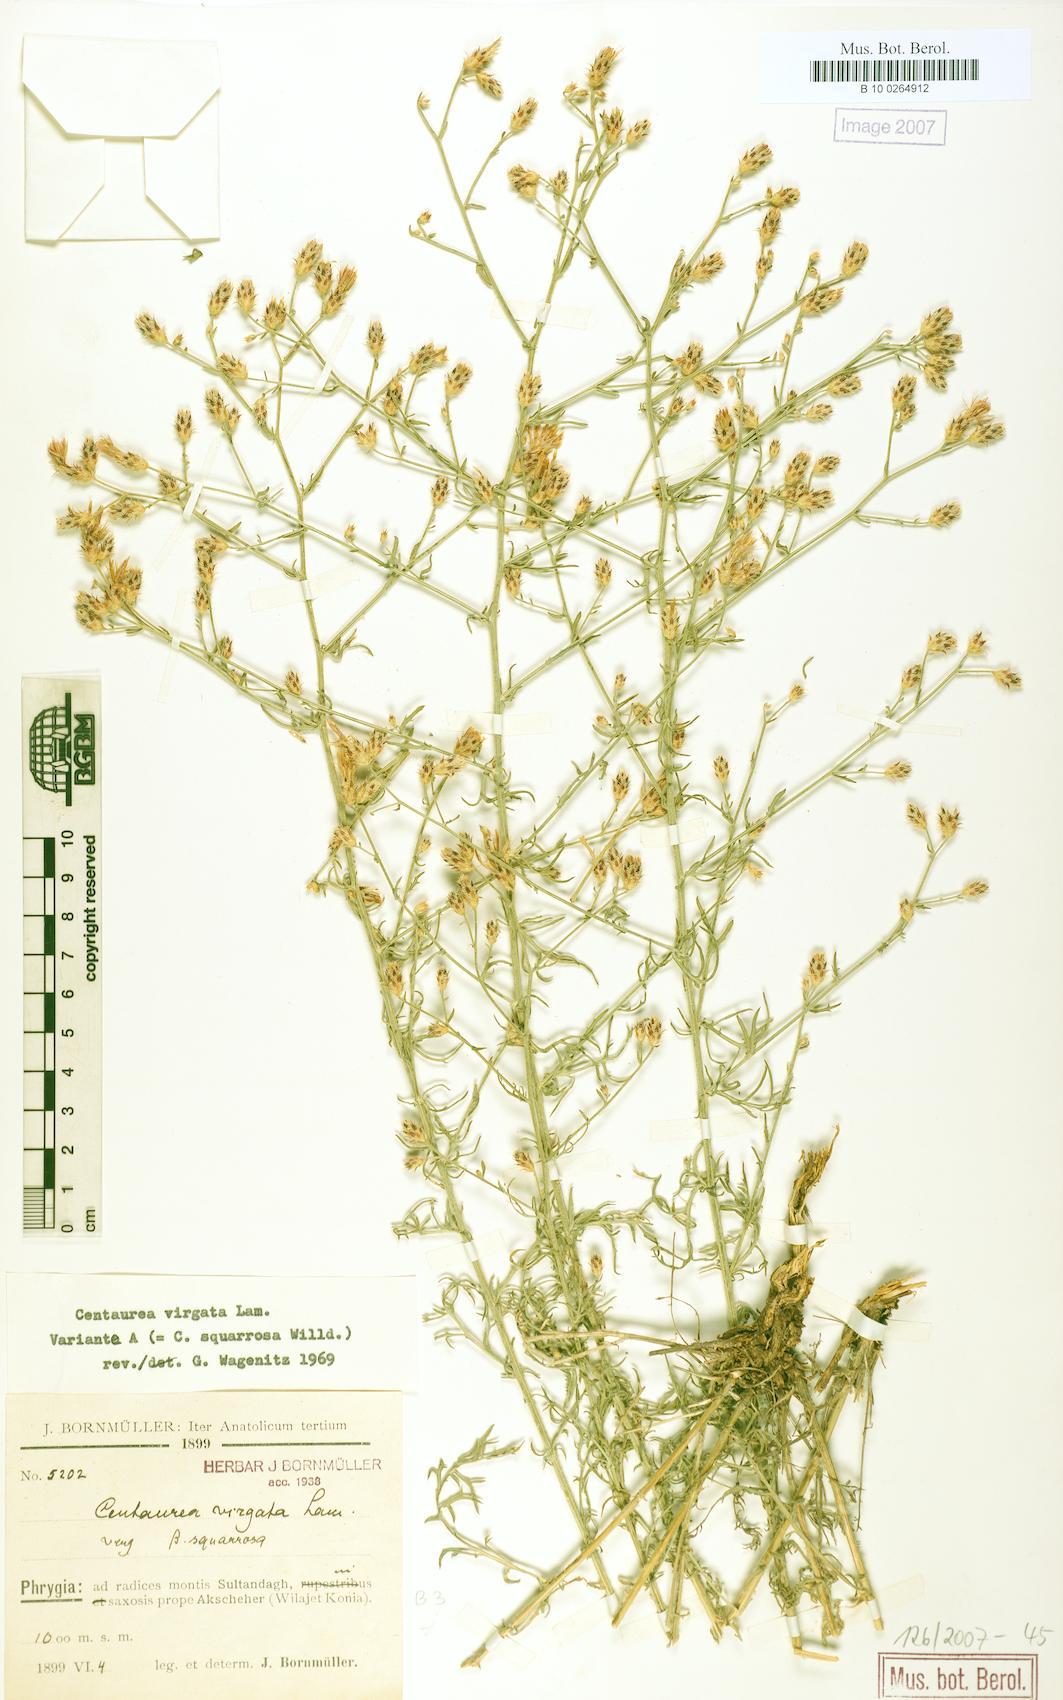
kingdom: Plantae
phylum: Tracheophyta
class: Magnoliopsida
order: Asterales
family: Asteraceae
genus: Centaurea
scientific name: Centaurea virgata
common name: Squarrose knapweed
